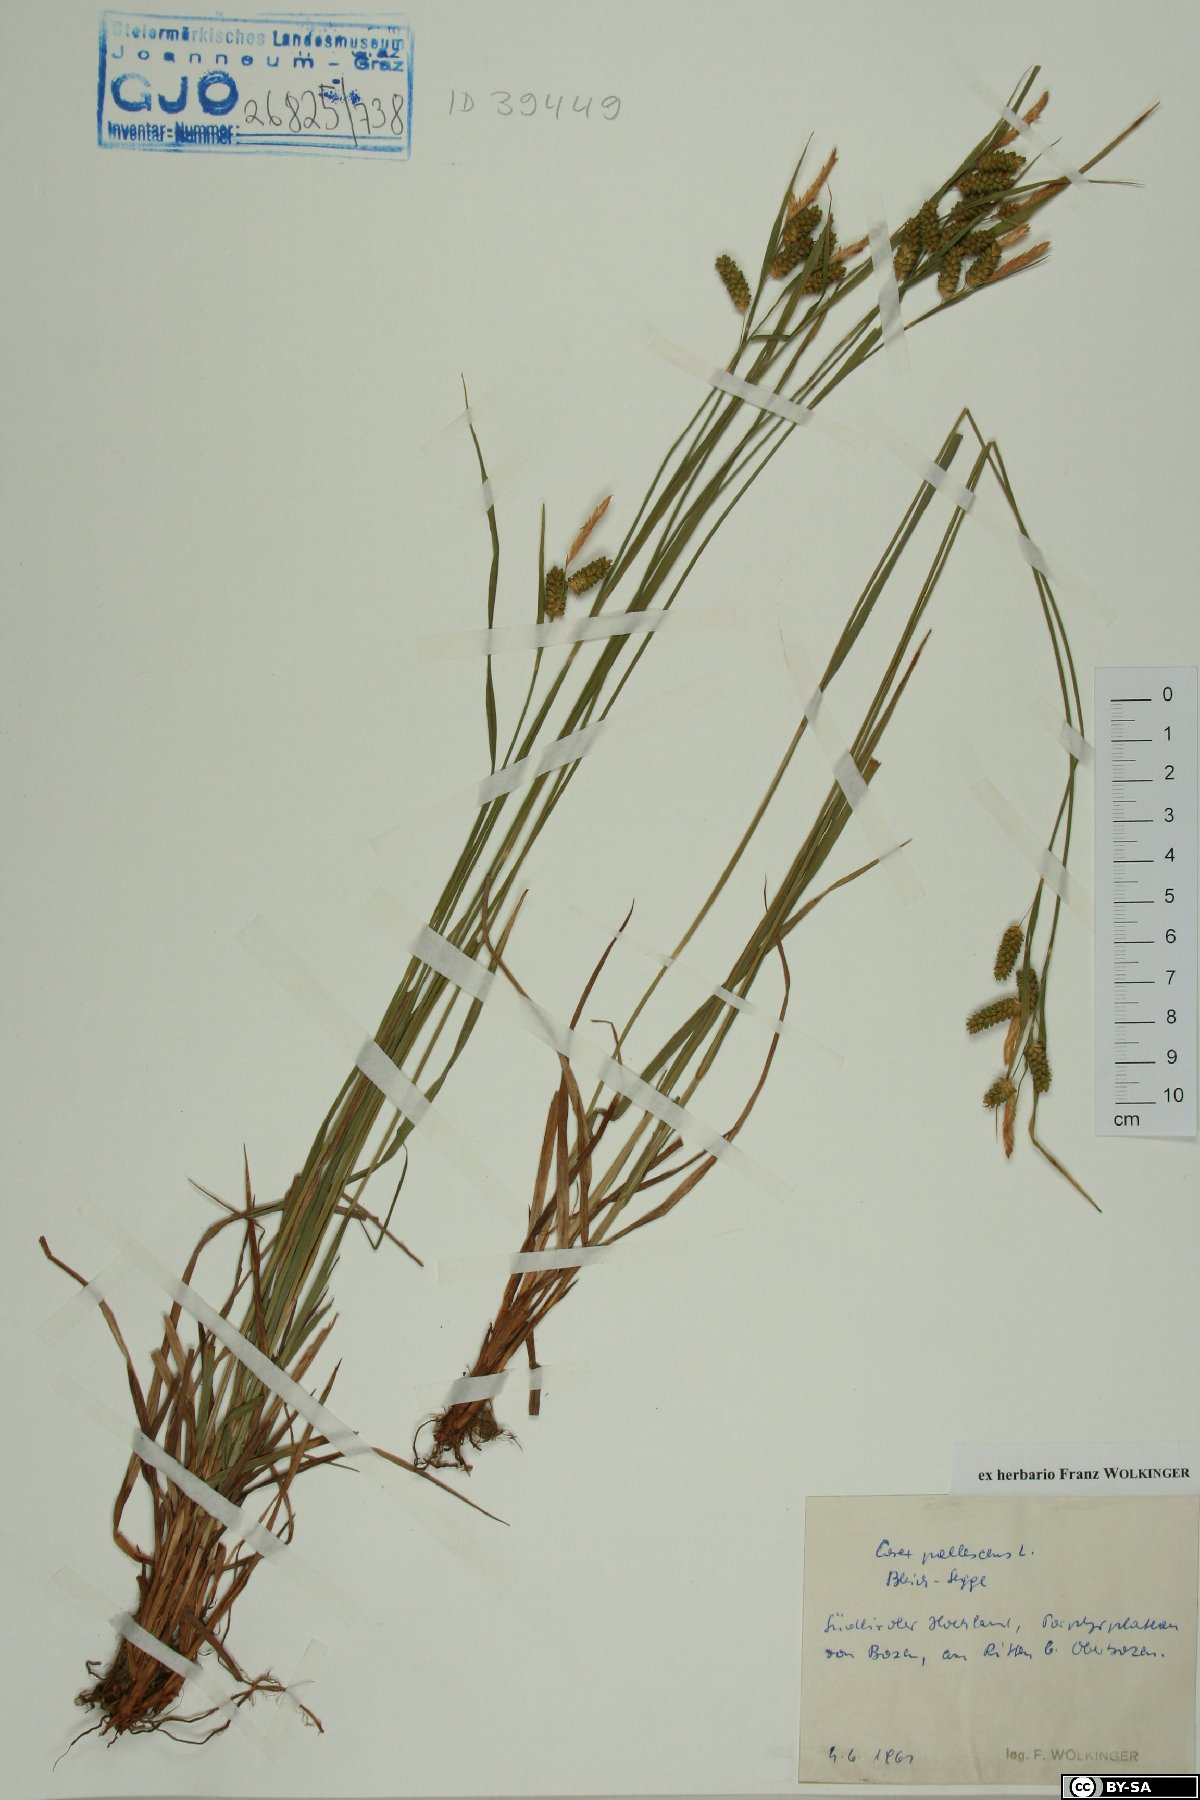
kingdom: Plantae
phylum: Tracheophyta
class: Liliopsida
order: Poales
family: Cyperaceae
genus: Carex
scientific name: Carex pallescens
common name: Pale sedge
